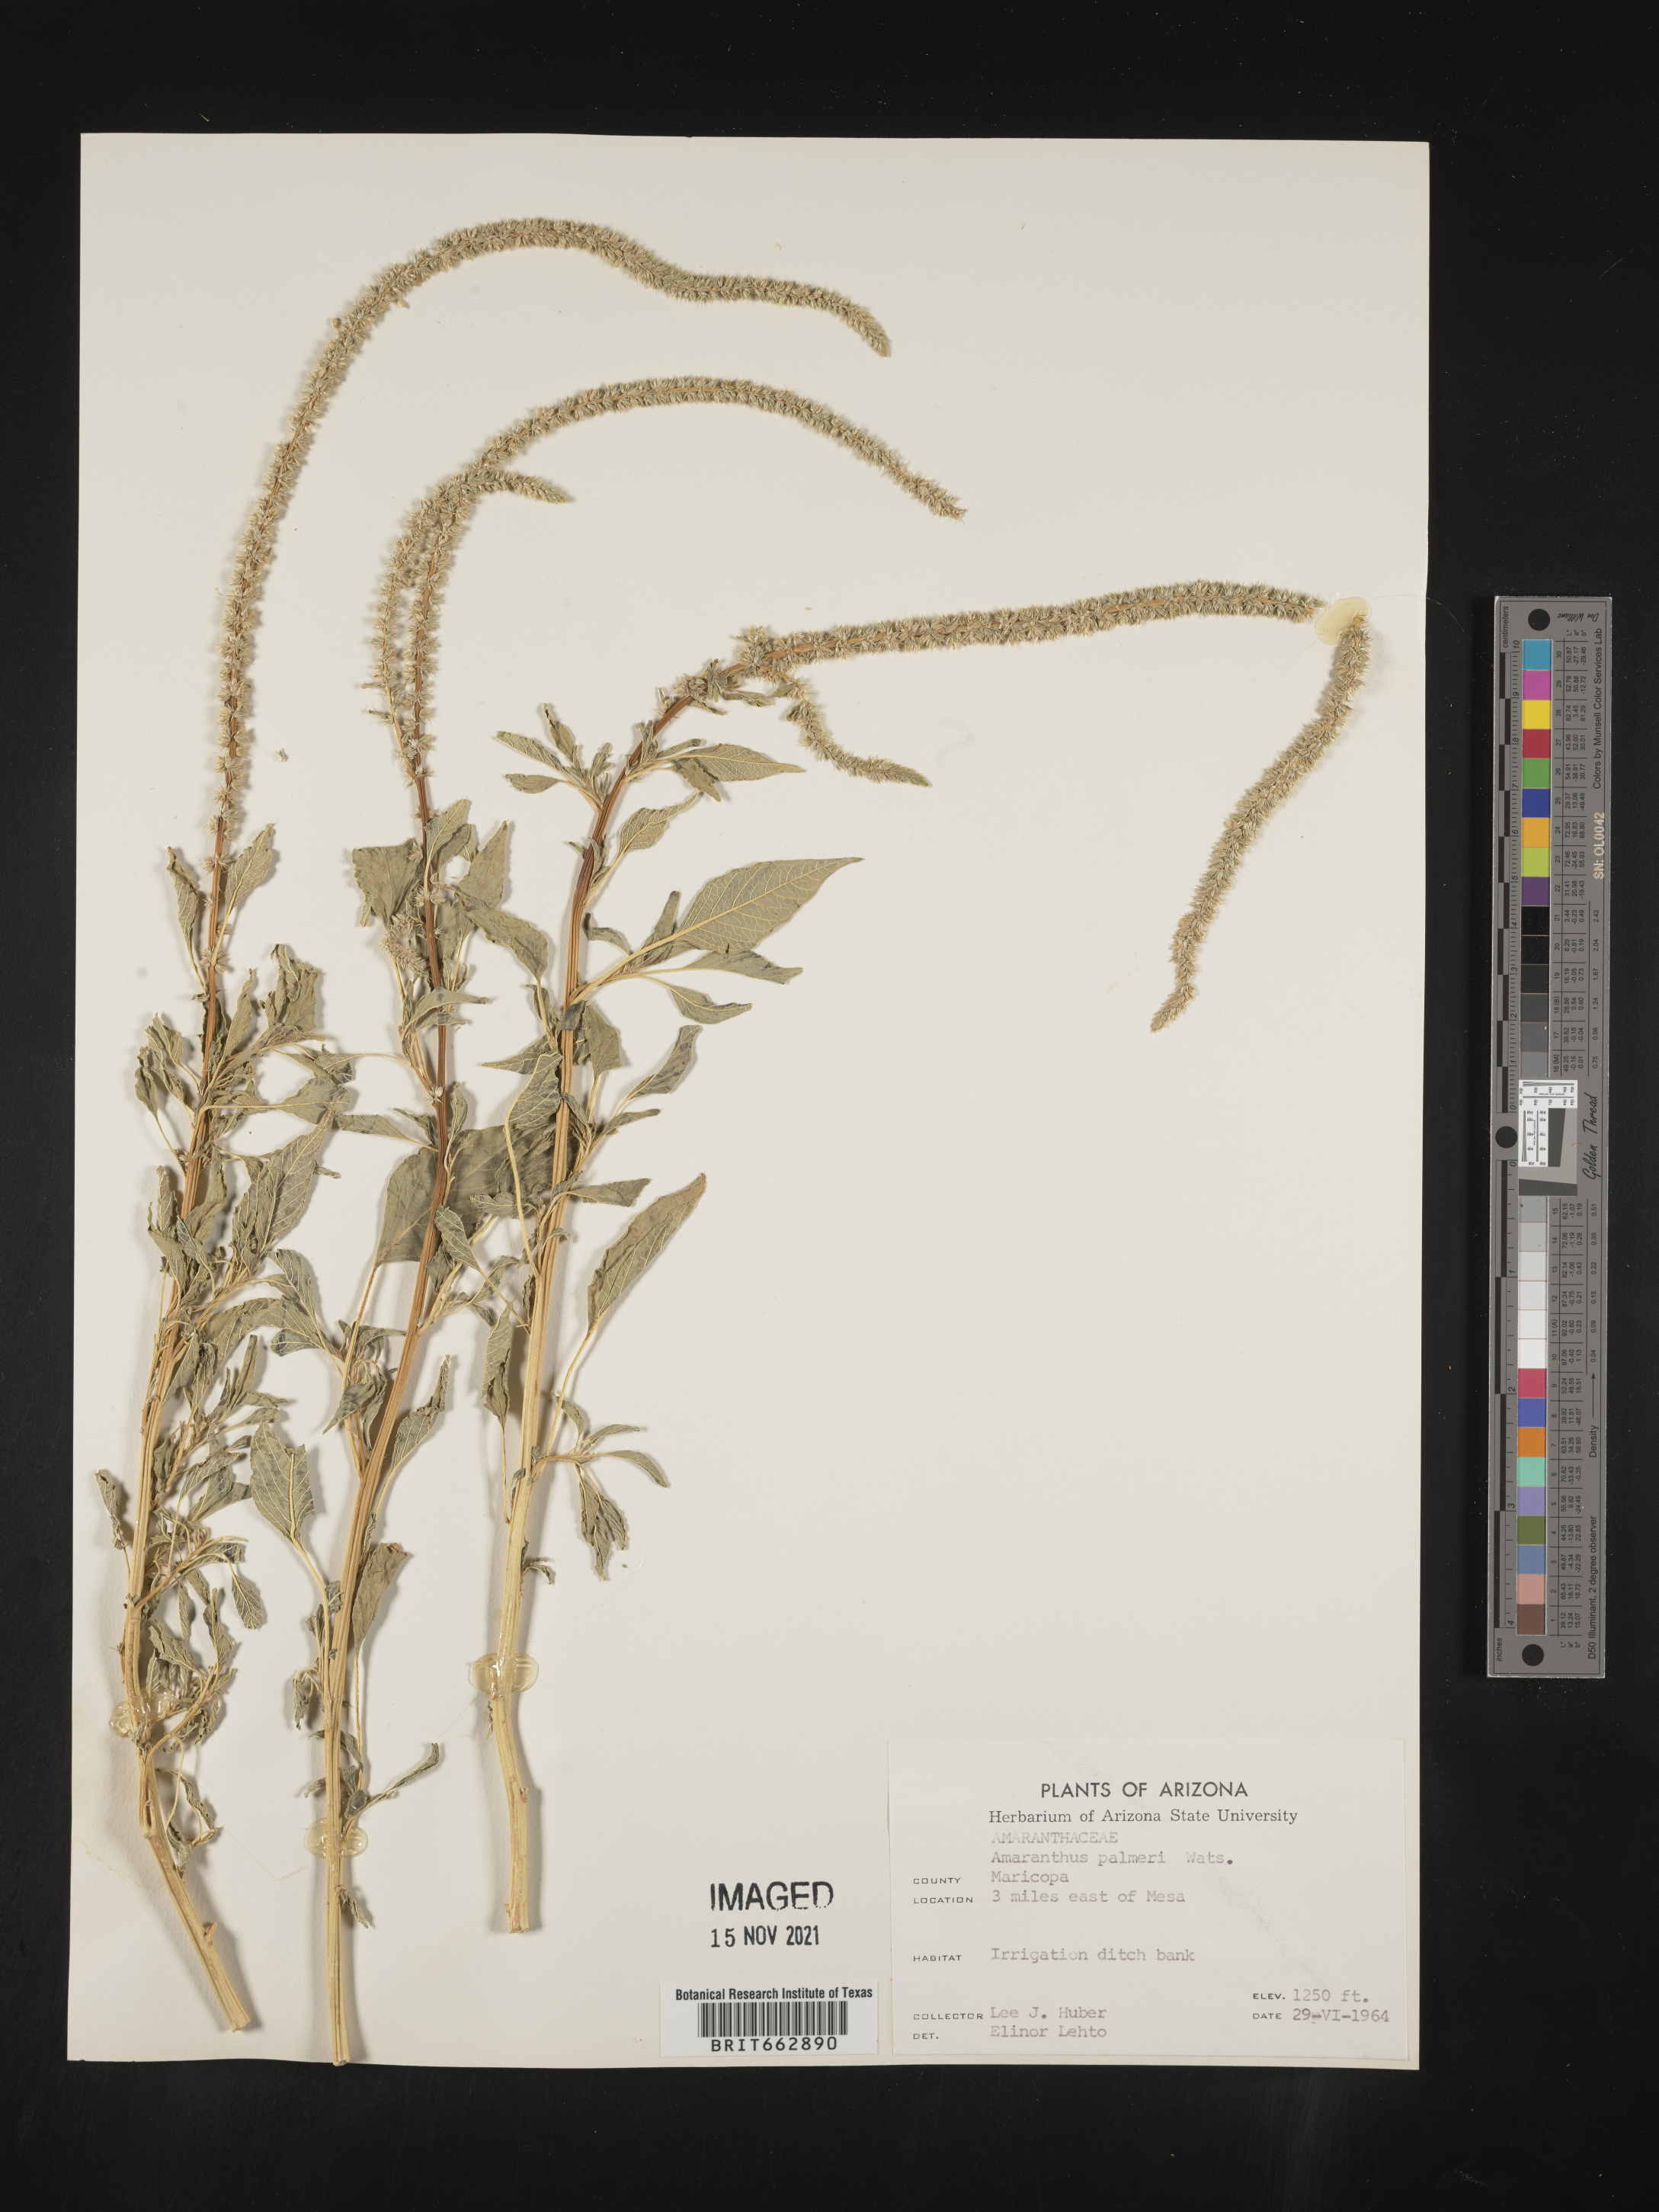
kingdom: Plantae
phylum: Tracheophyta
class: Magnoliopsida
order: Caryophyllales
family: Amaranthaceae
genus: Amaranthus
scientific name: Amaranthus palmeri
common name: Dioecious amaranth
